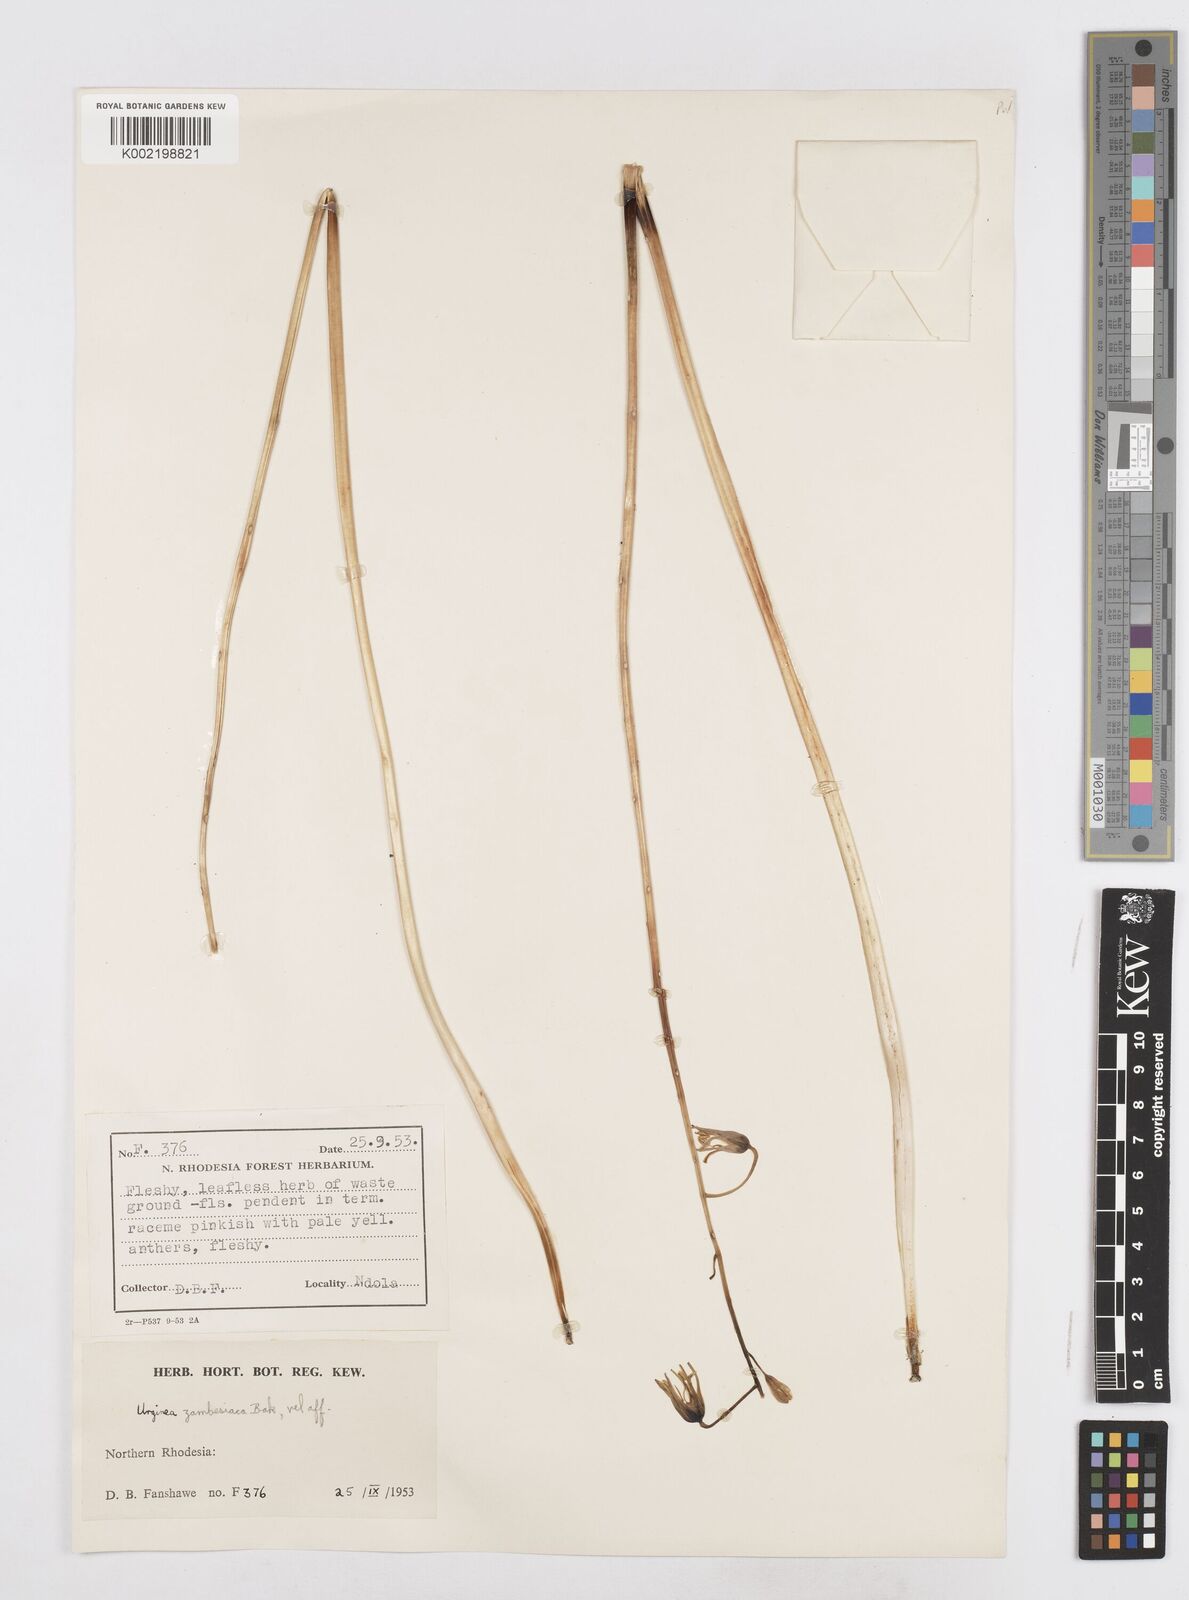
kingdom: Plantae
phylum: Tracheophyta
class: Liliopsida
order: Asparagales
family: Asparagaceae
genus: Drimia
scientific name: Drimia indica
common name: Indian-squill
